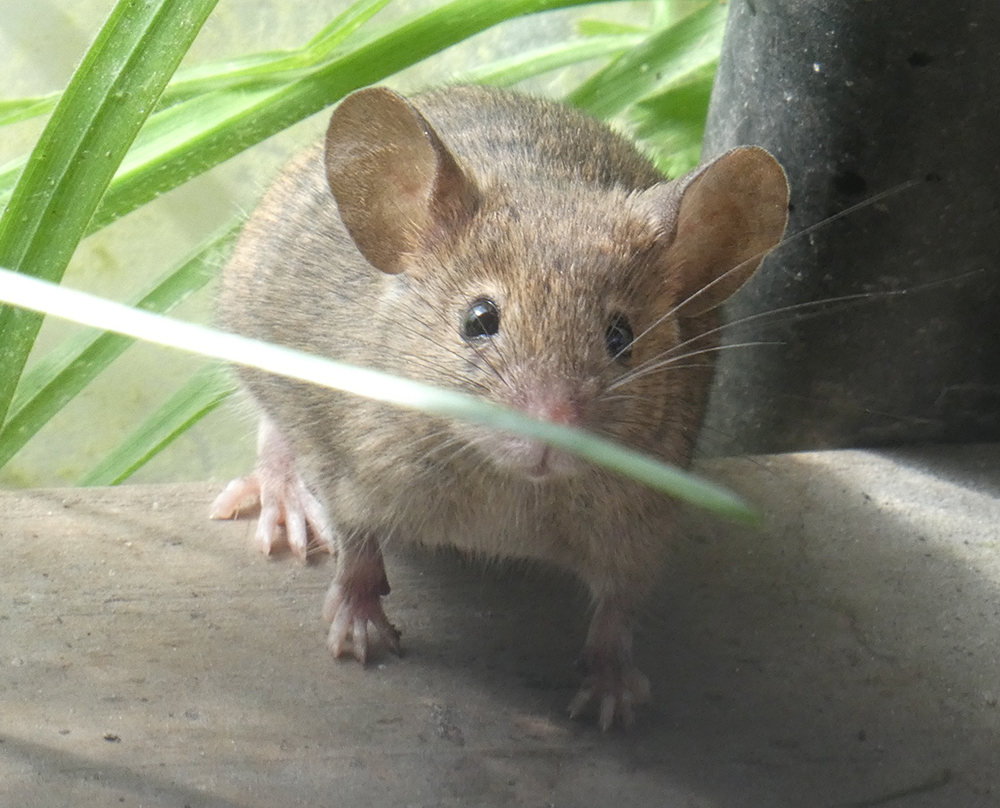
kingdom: Animalia
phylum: Chordata
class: Mammalia
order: Rodentia
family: Muridae
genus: Mus
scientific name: Mus musculus
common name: House mouse
